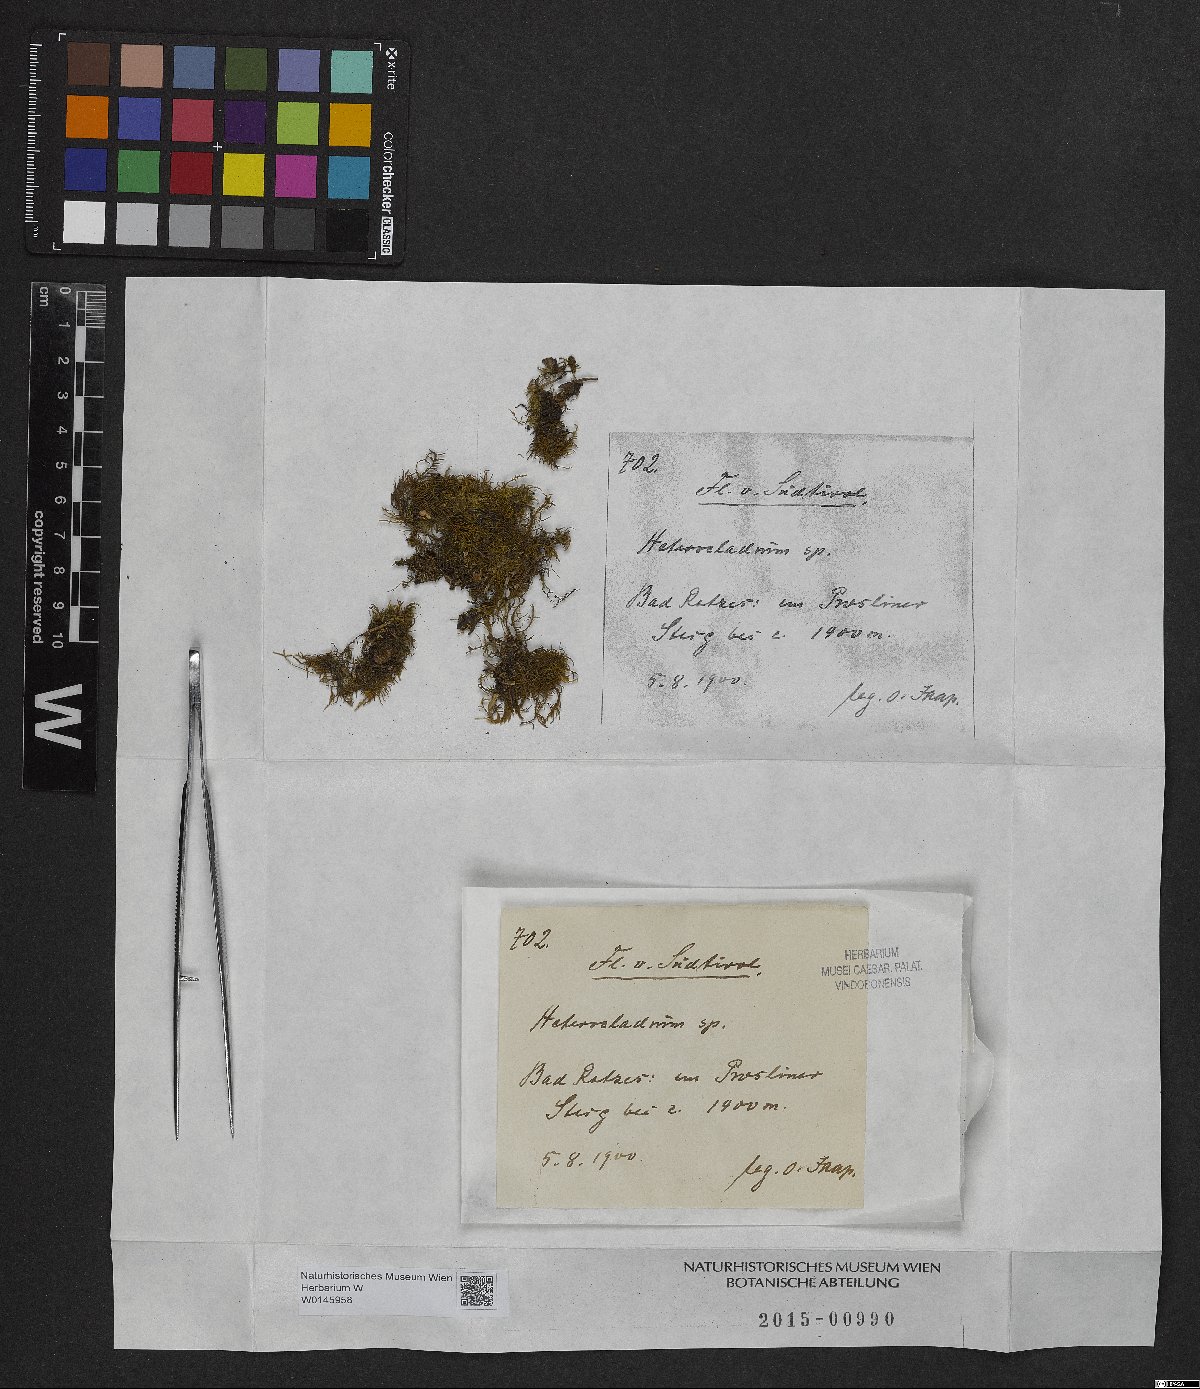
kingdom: Plantae
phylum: Bryophyta
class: Bryopsida
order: Hypnales
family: Lembophyllaceae
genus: Heterocladium
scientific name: Heterocladium
